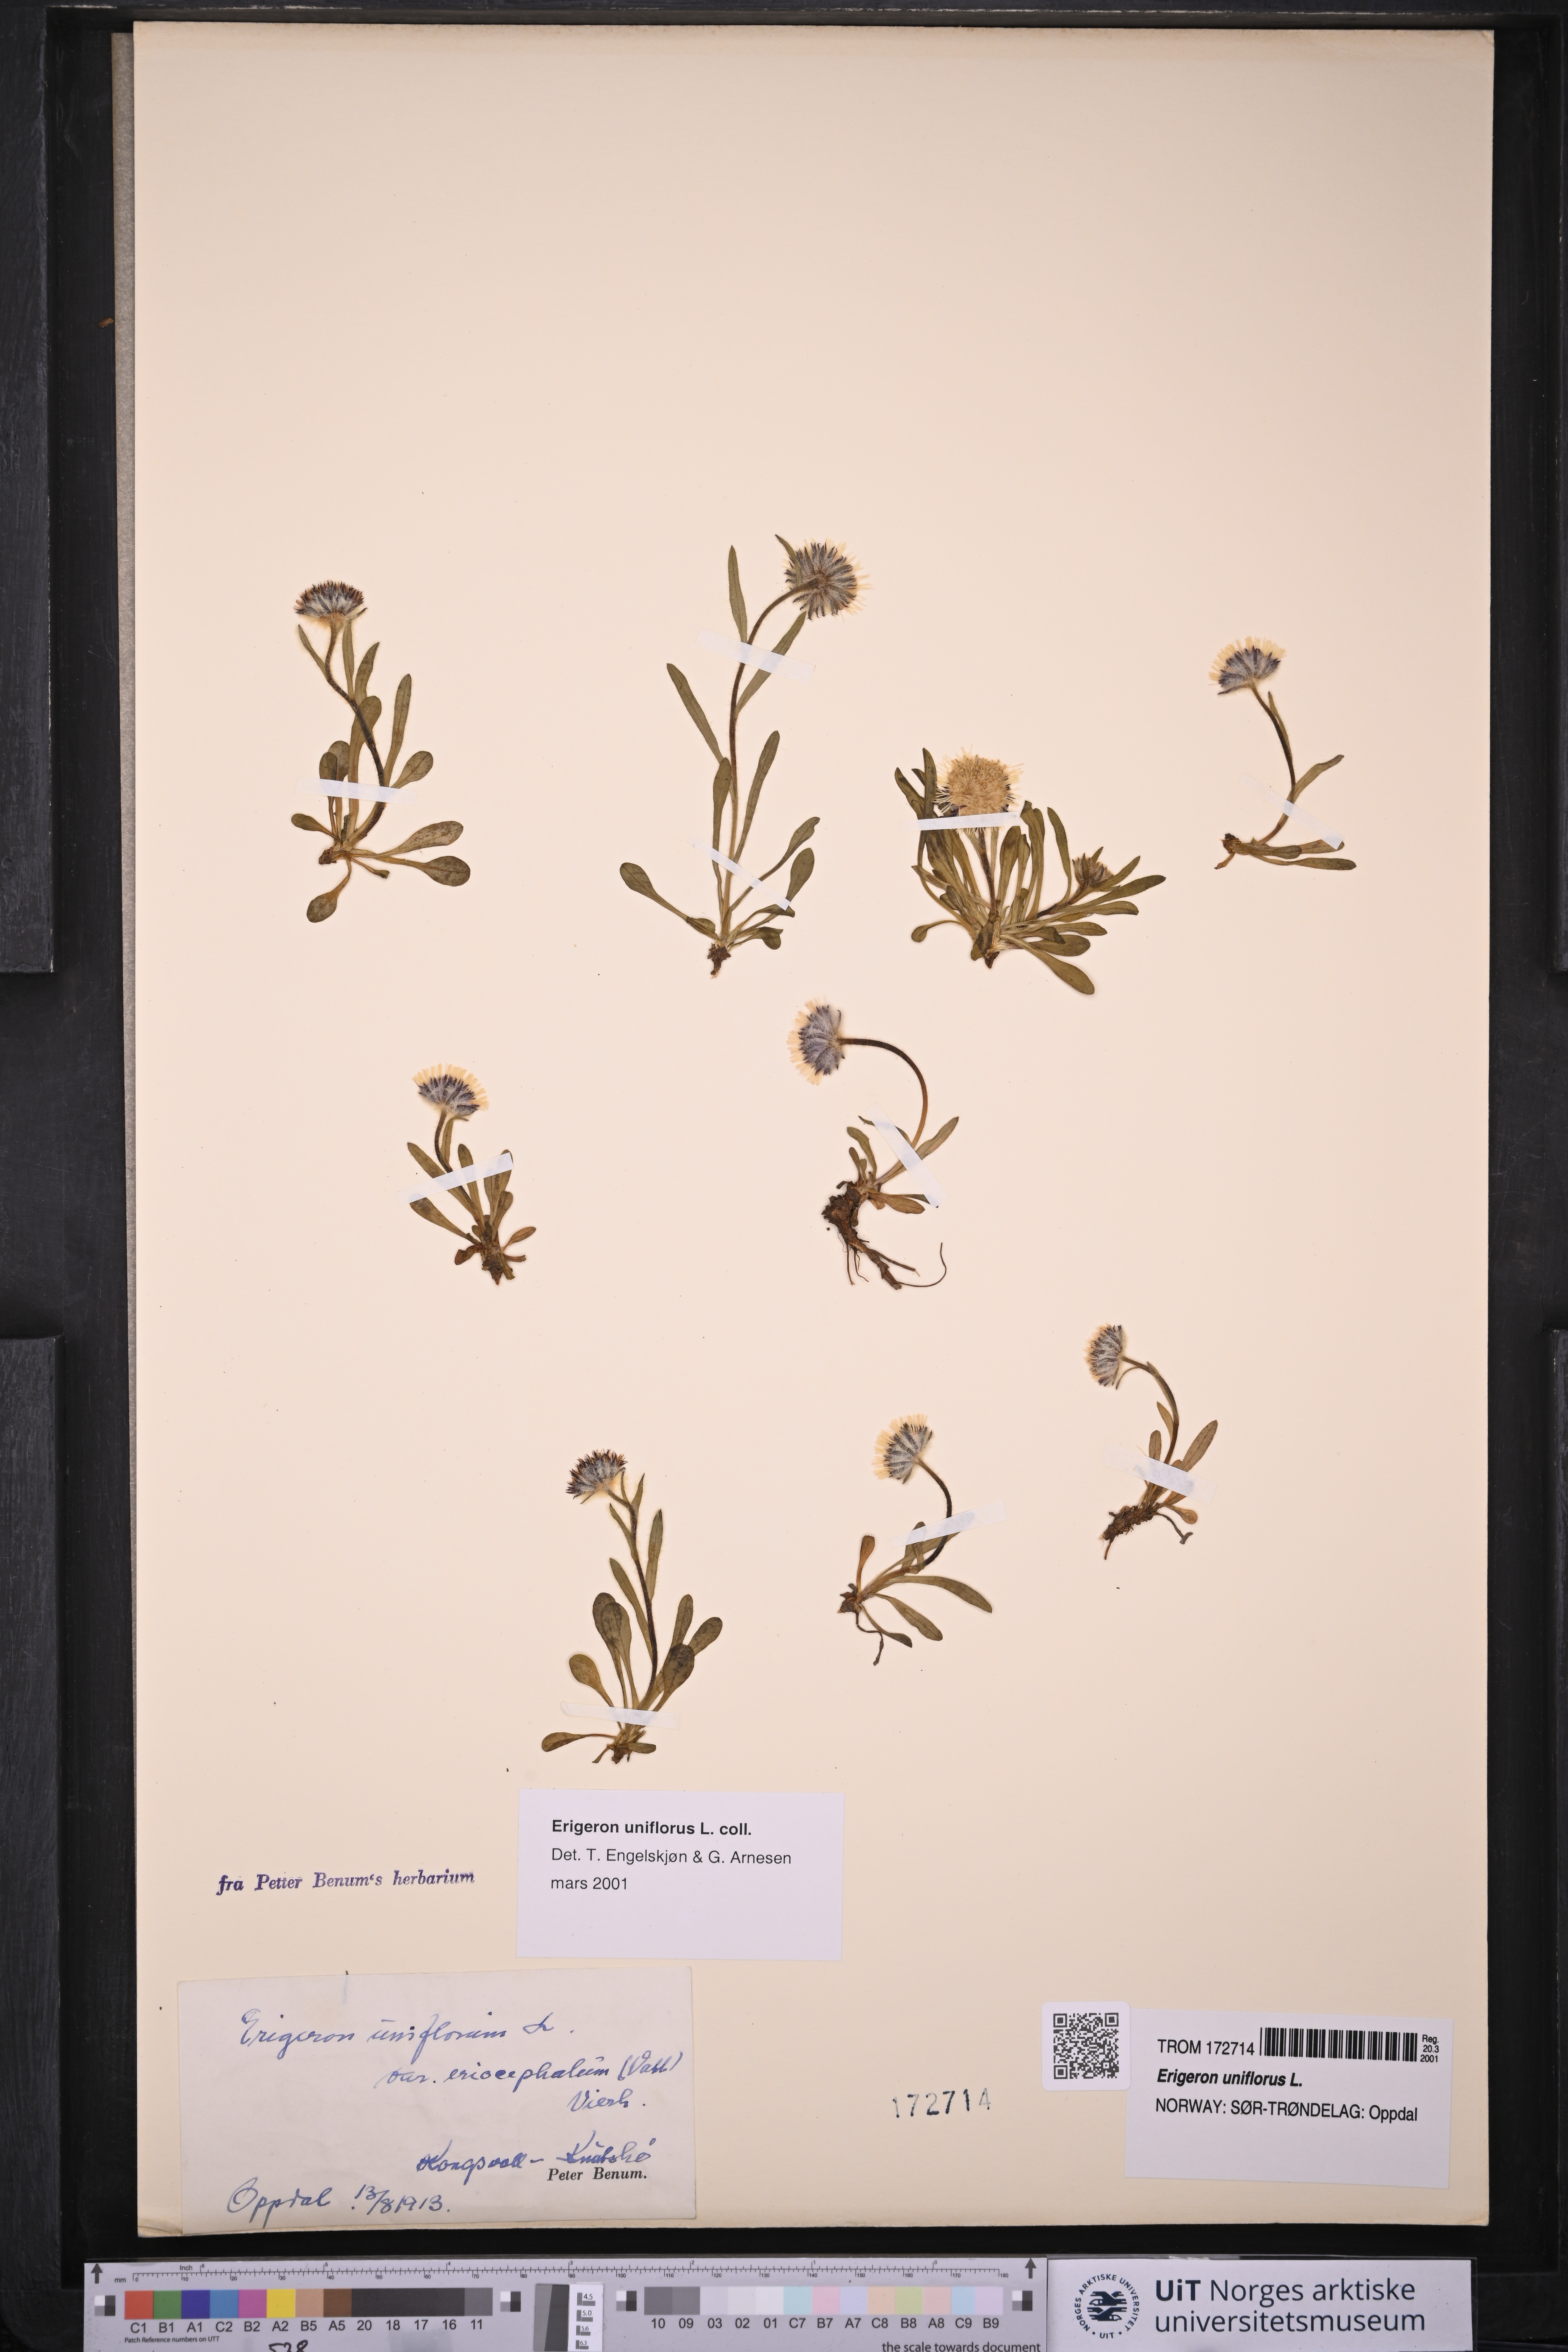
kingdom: Plantae
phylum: Tracheophyta
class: Magnoliopsida
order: Asterales
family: Asteraceae
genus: Erigeron
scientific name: Erigeron uniflorus
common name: Northern daisy
